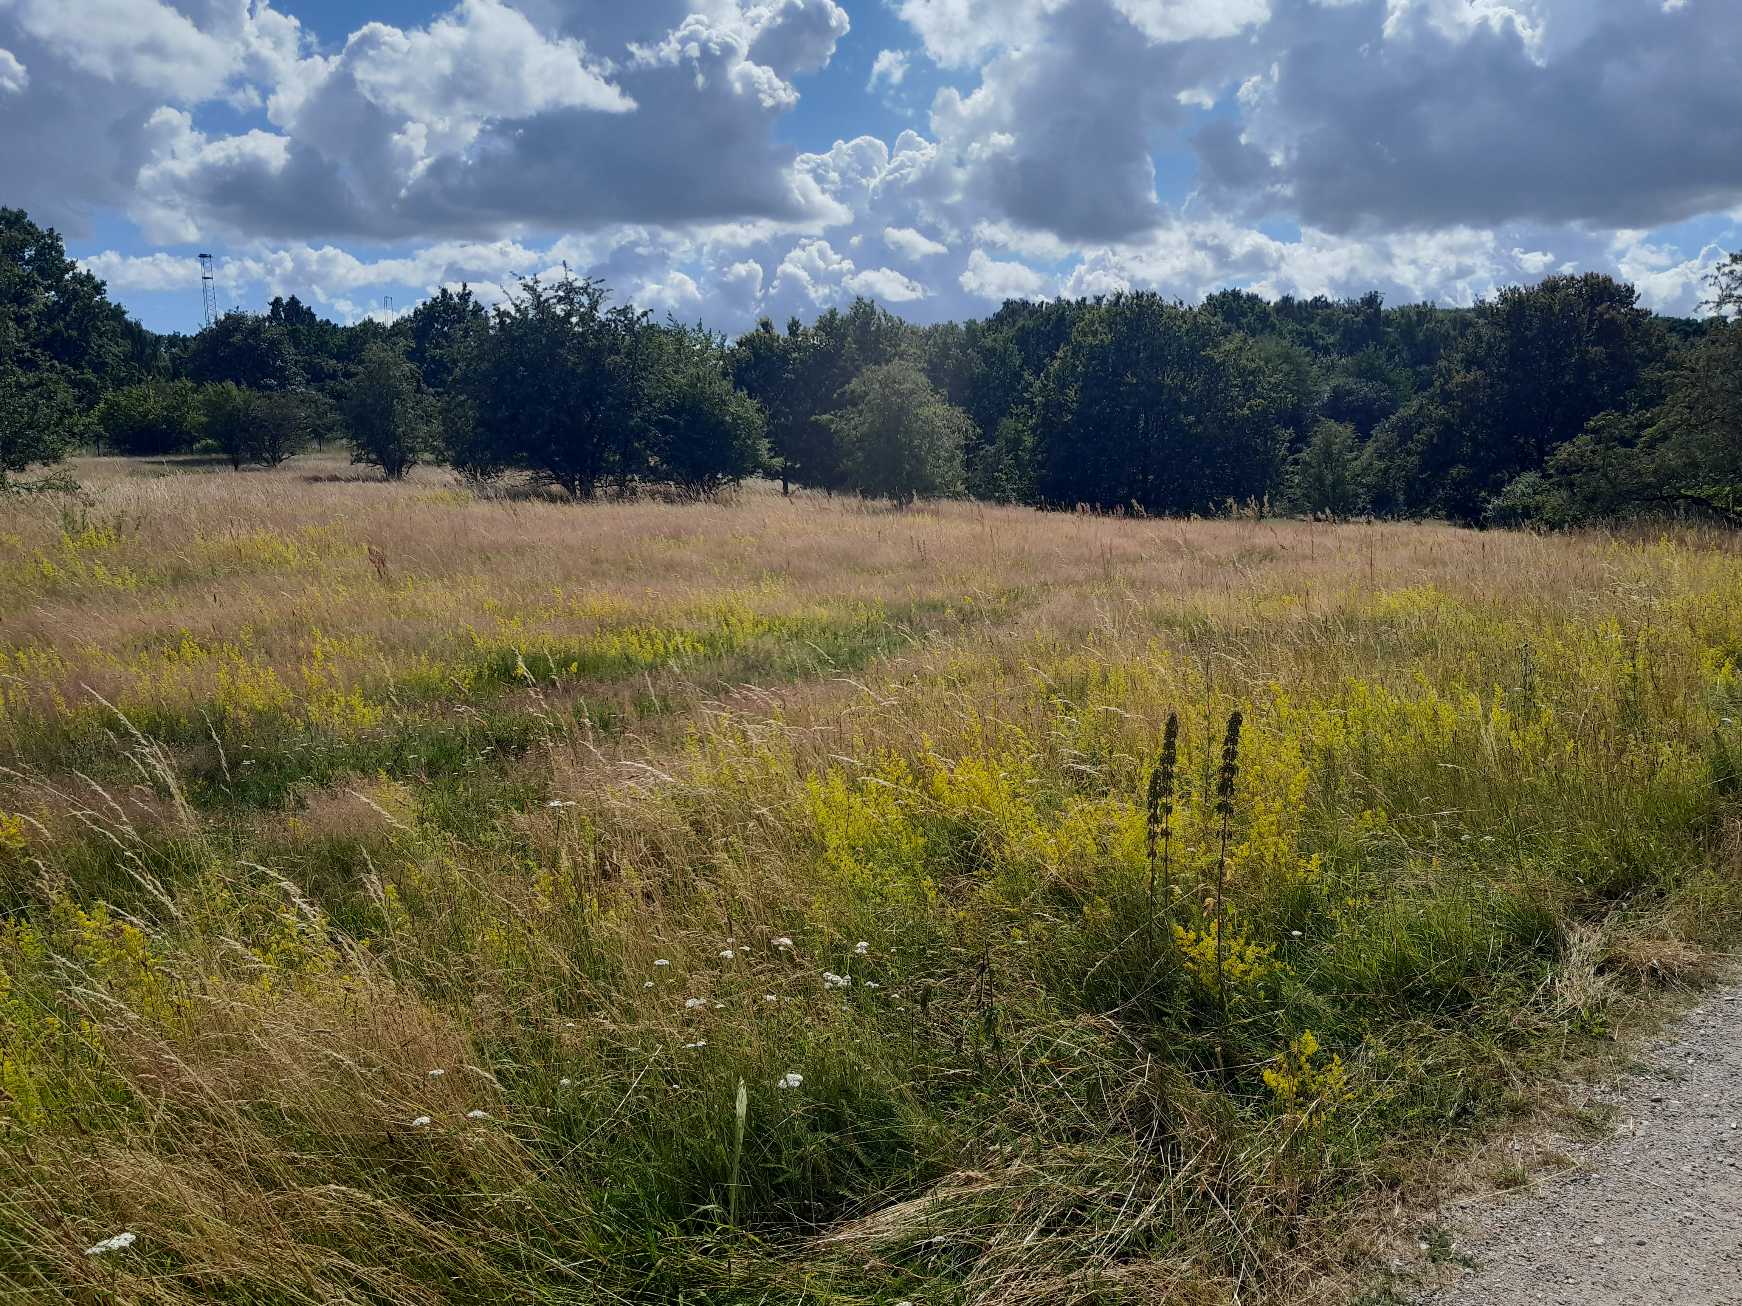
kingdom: Plantae
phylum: Tracheophyta
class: Magnoliopsida
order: Gentianales
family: Rubiaceae
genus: Galium
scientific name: Galium verum
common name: Gul snerre
